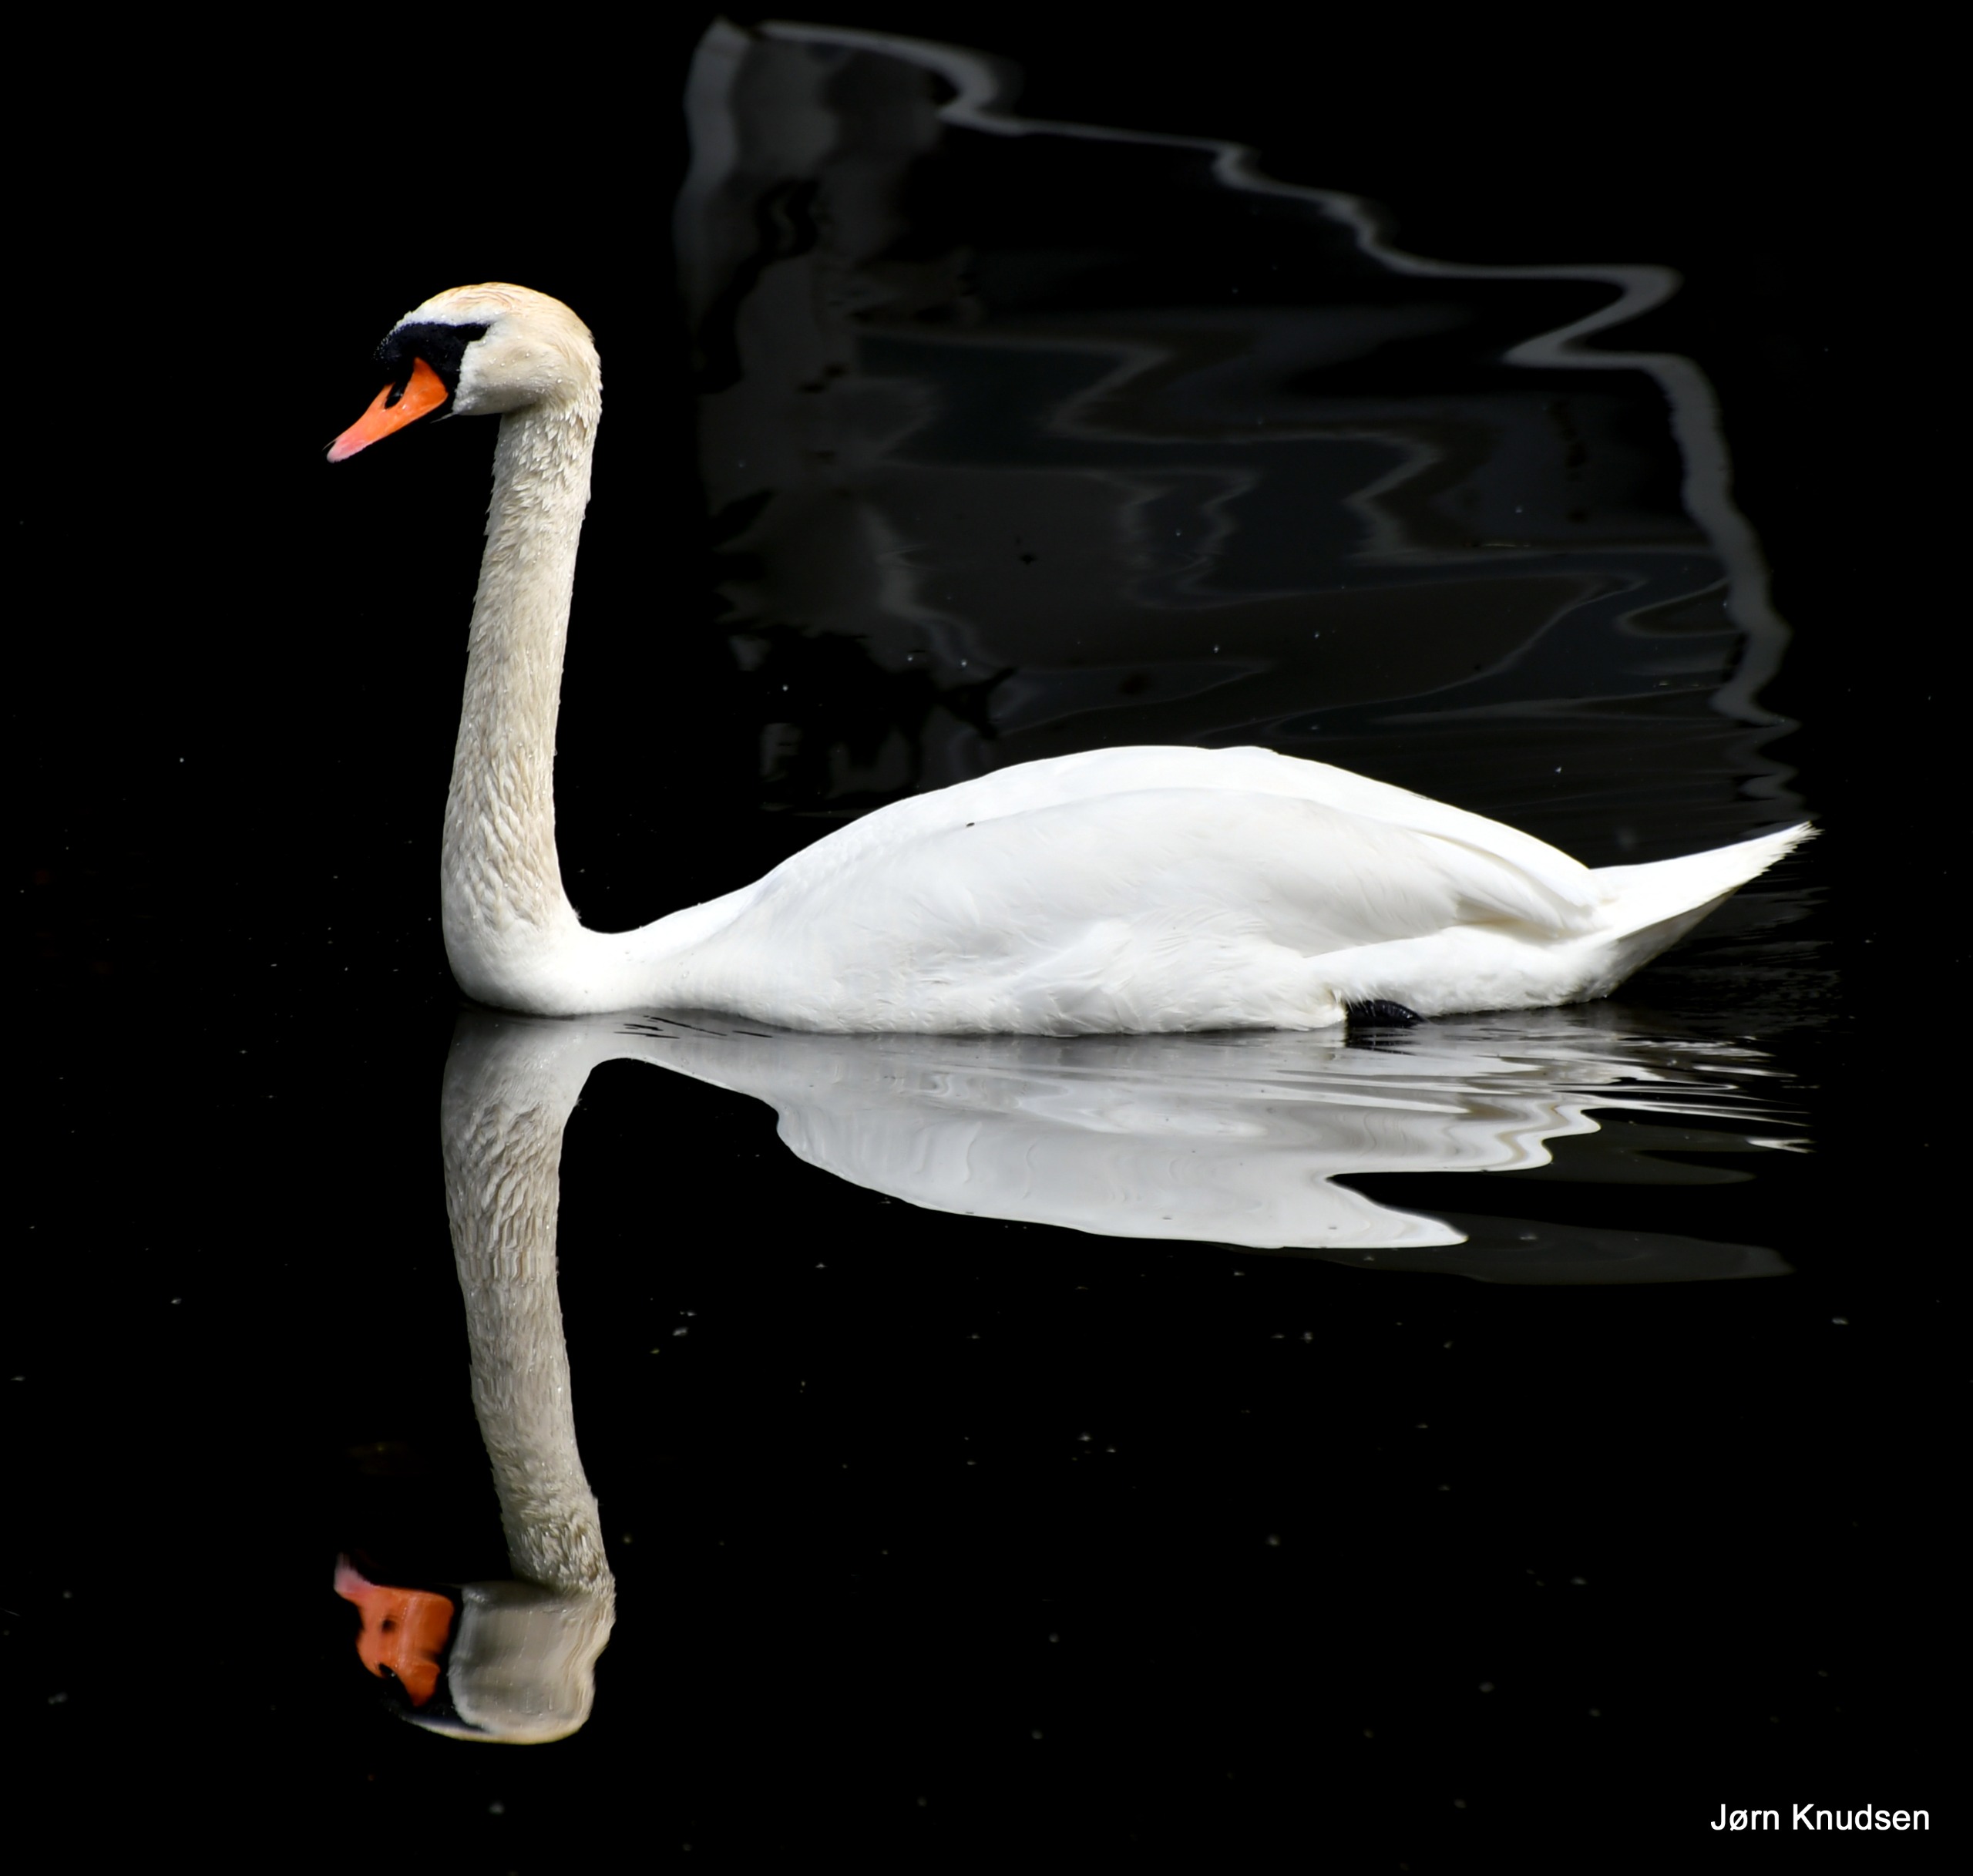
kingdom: Animalia
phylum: Chordata
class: Aves
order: Anseriformes
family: Anatidae
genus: Cygnus
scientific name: Cygnus olor
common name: Knopsvane
